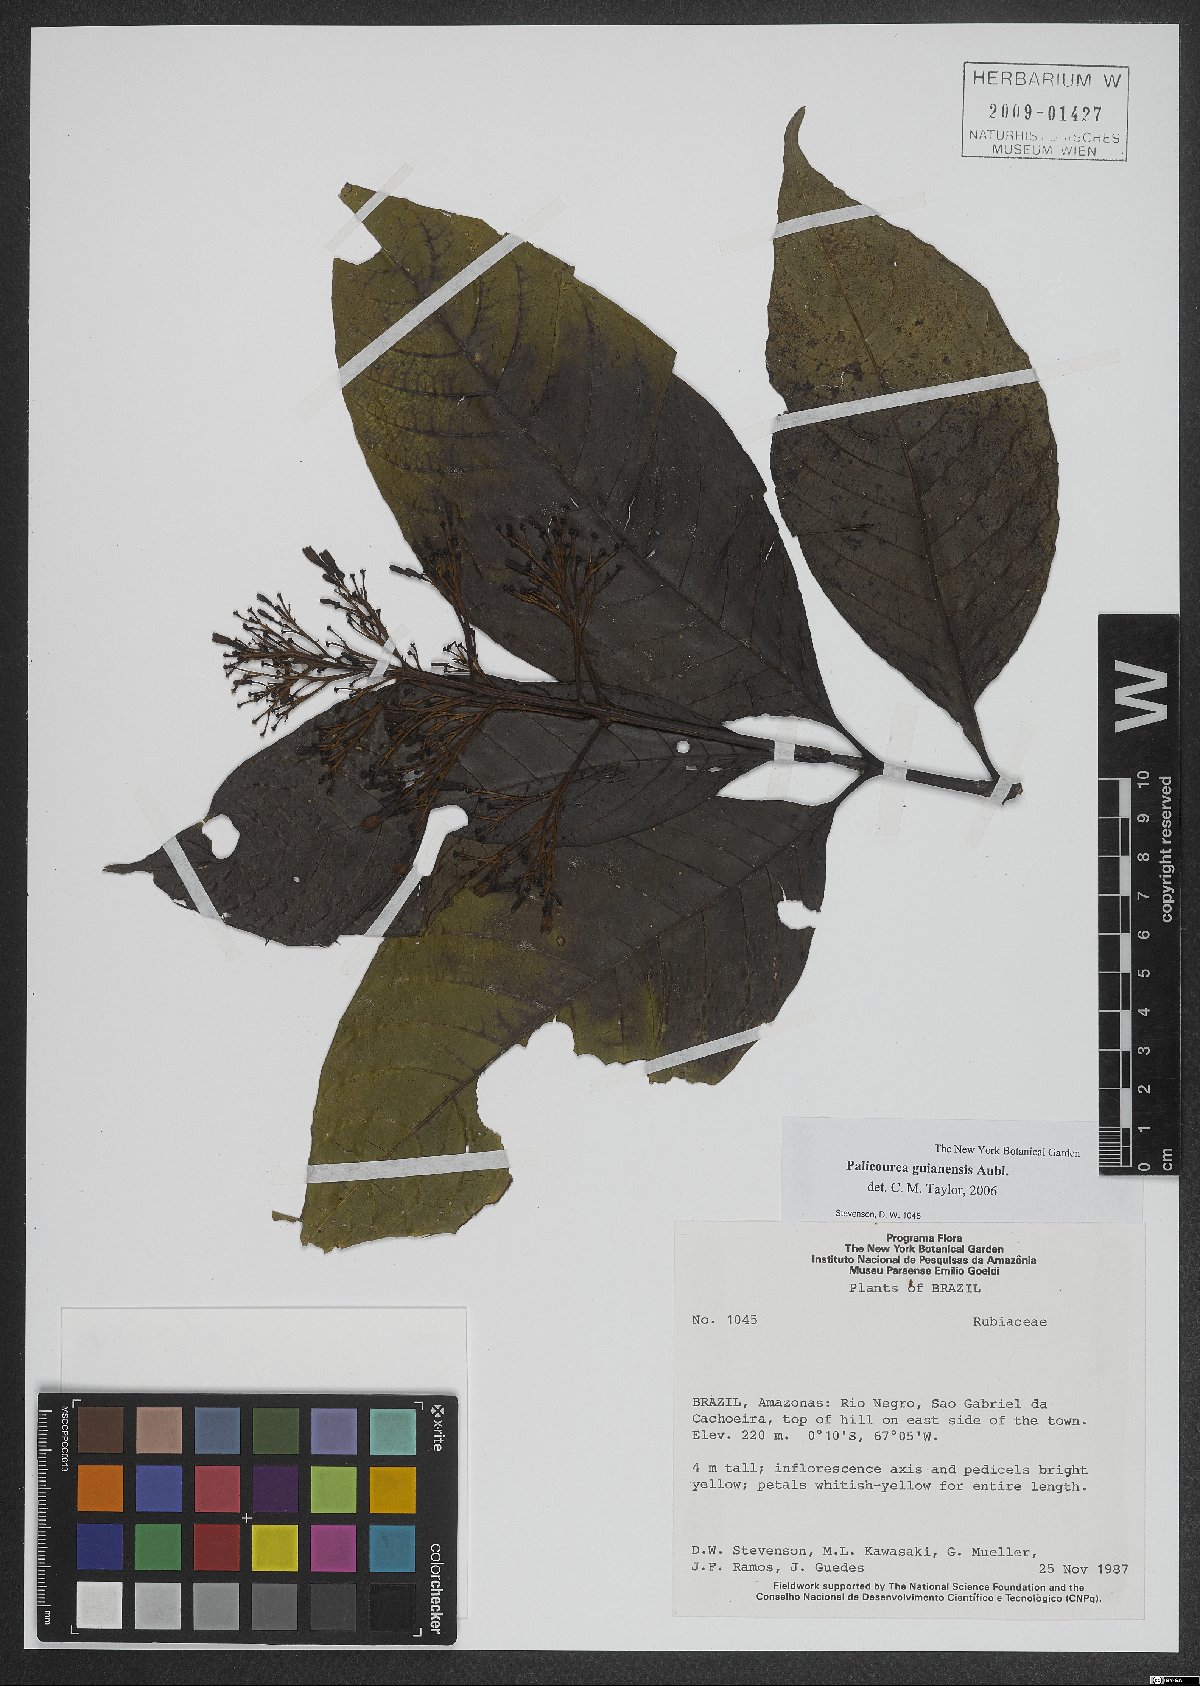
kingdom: Plantae
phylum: Tracheophyta
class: Magnoliopsida
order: Gentianales
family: Rubiaceae
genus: Palicourea
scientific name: Palicourea guianensis
